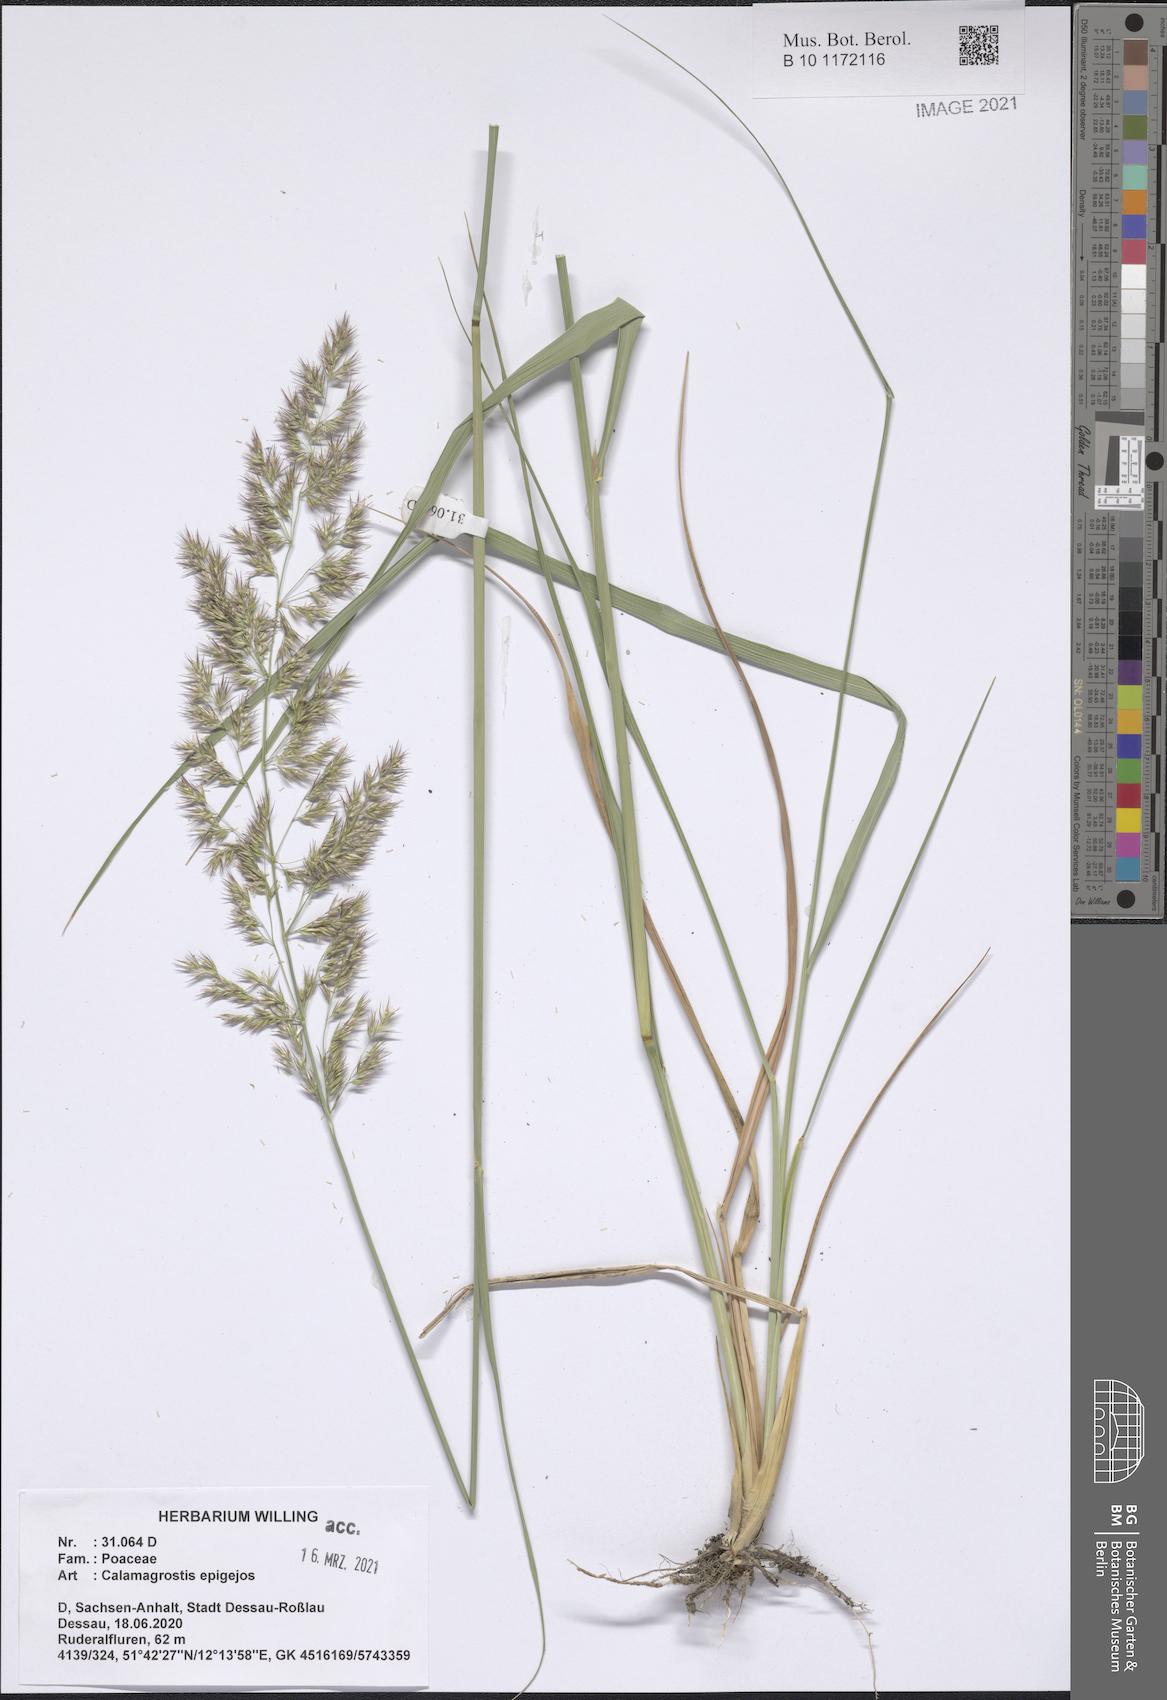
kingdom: Plantae
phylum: Tracheophyta
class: Liliopsida
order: Poales
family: Poaceae
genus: Calamagrostis
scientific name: Calamagrostis epigejos
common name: Wood small-reed
